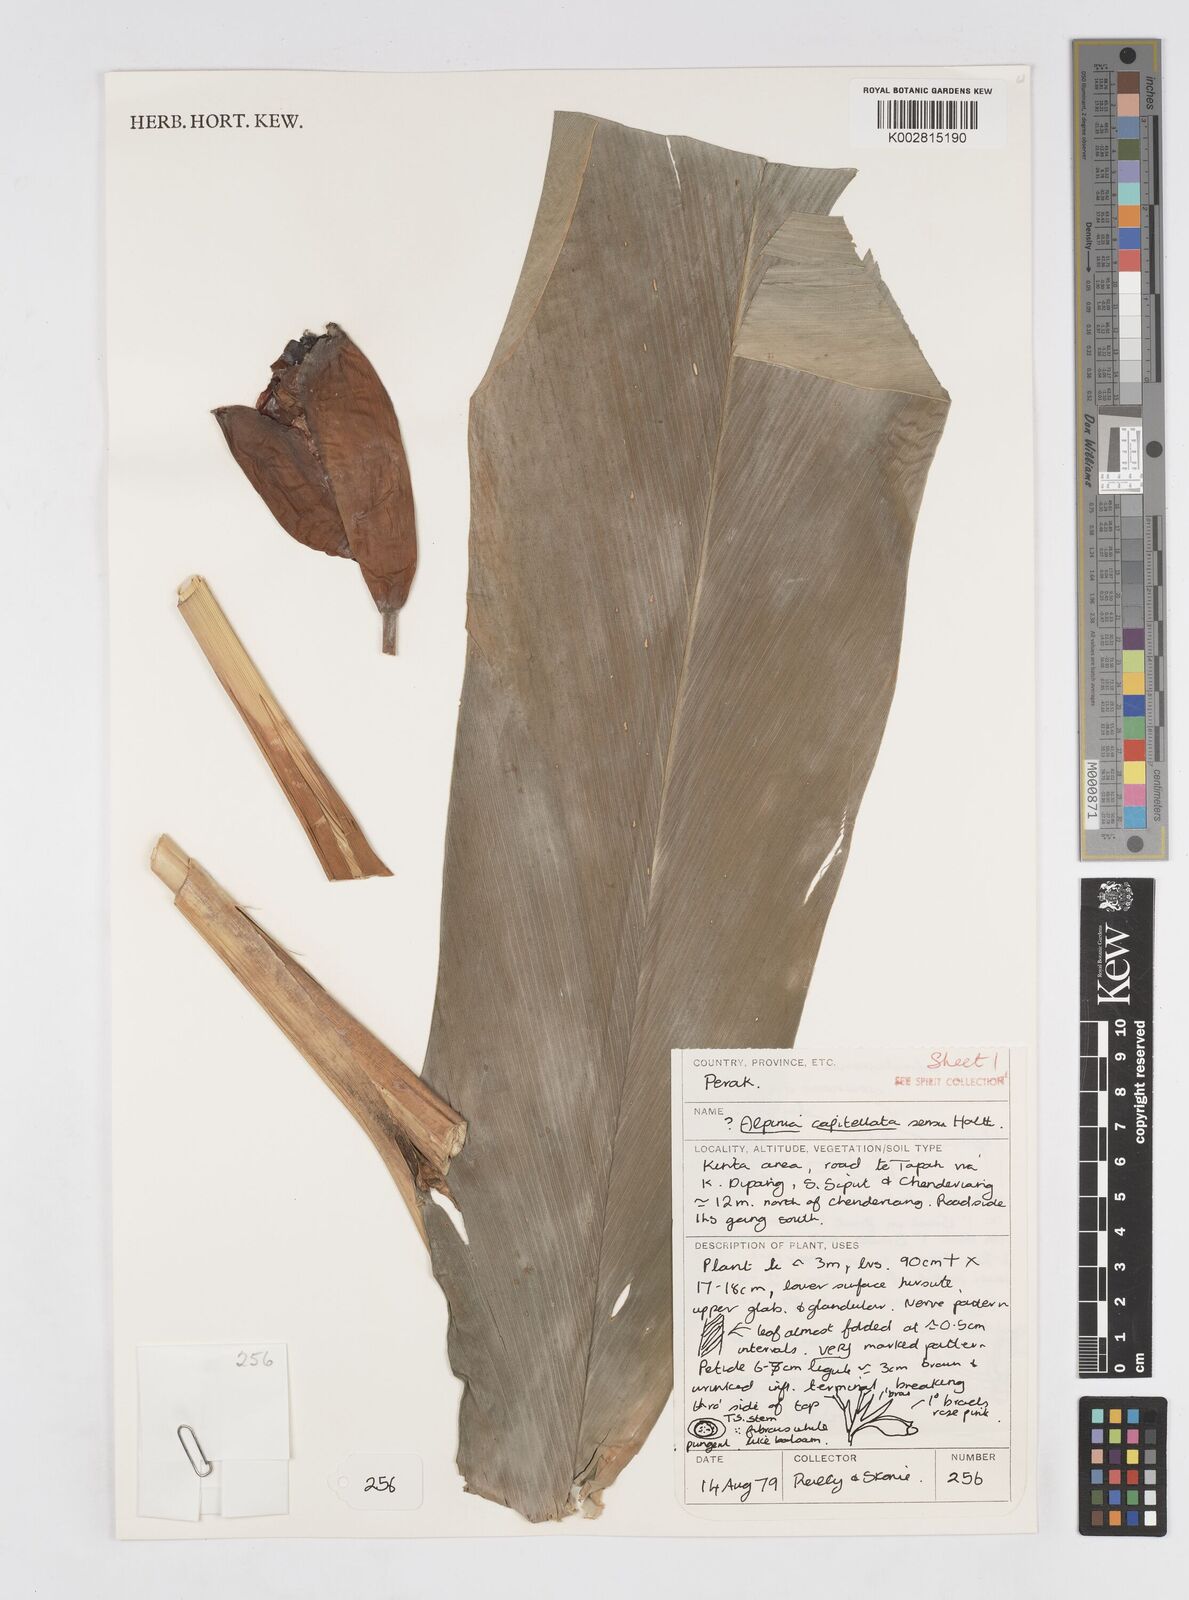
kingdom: Plantae
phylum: Tracheophyta
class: Liliopsida
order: Zingiberales
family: Zingiberaceae
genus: Alpinia
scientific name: Alpinia capitellata
